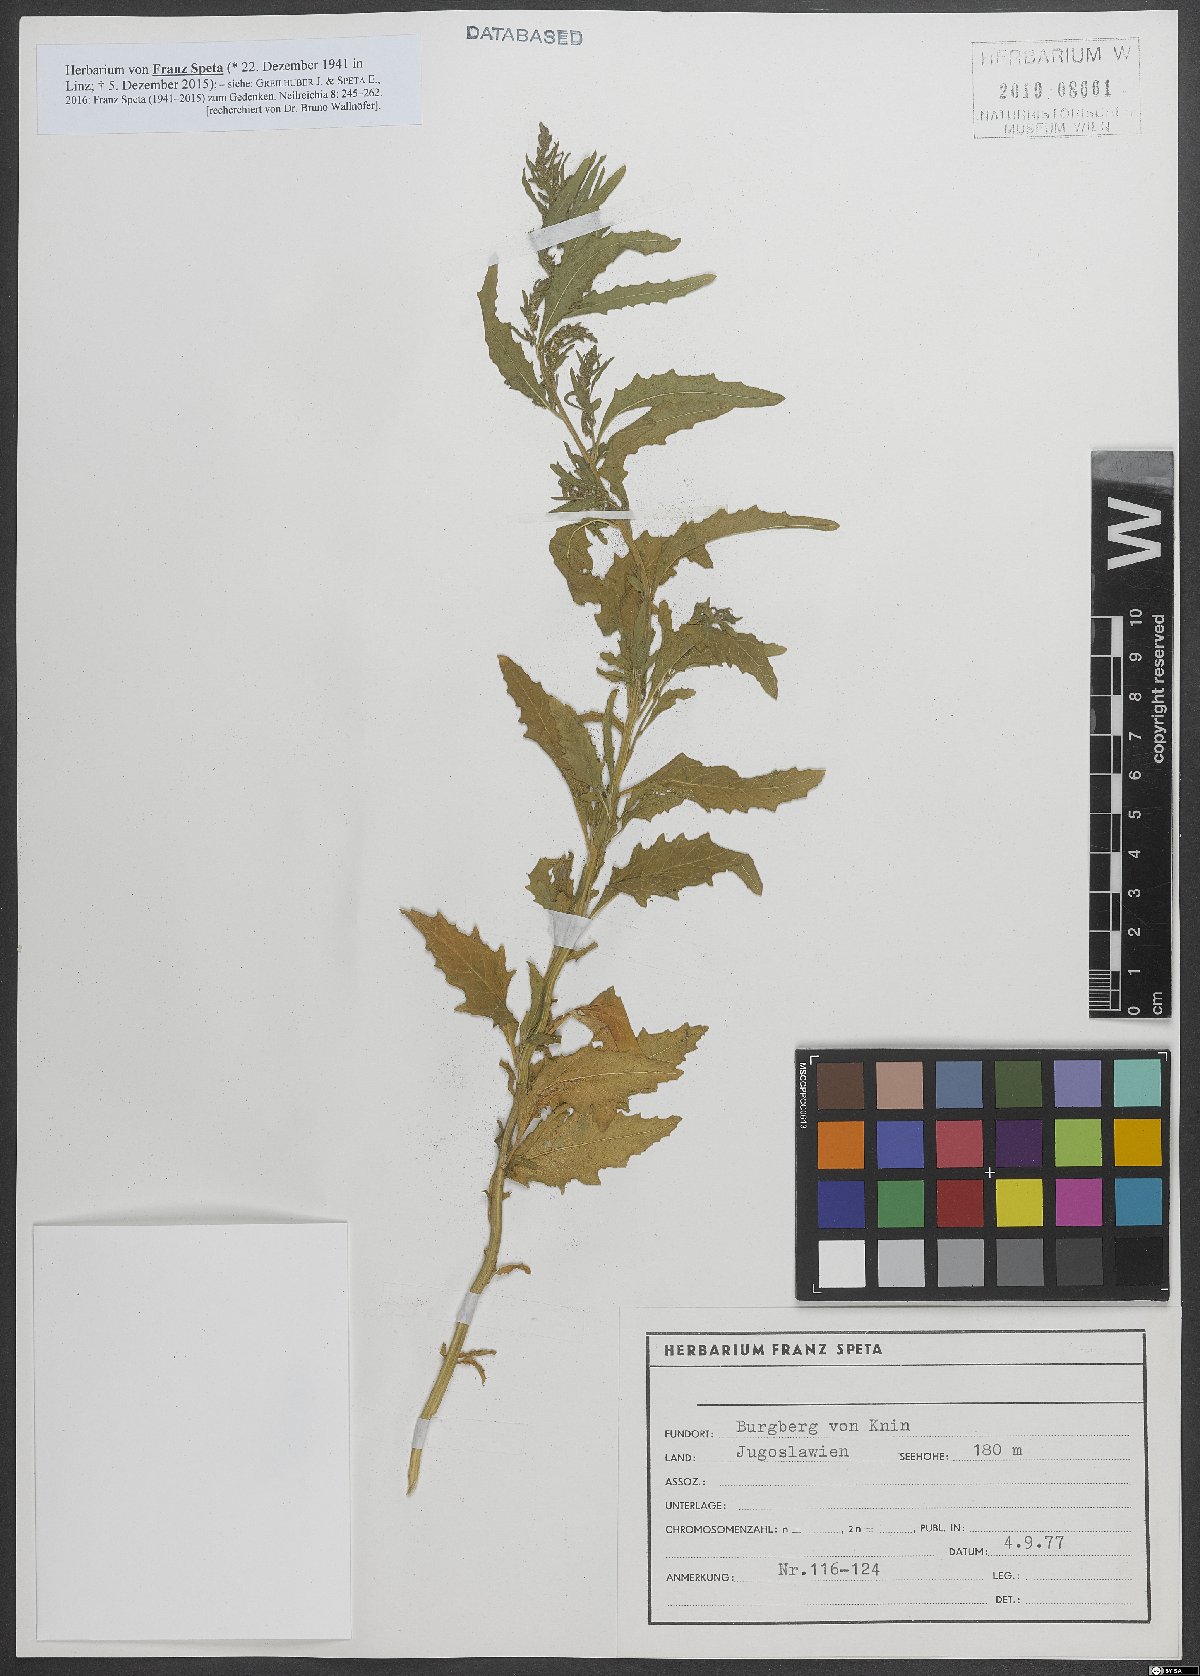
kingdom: Plantae
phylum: Tracheophyta
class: Magnoliopsida
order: Caryophyllales
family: Amaranthaceae
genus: Chenopodium
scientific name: Chenopodium
